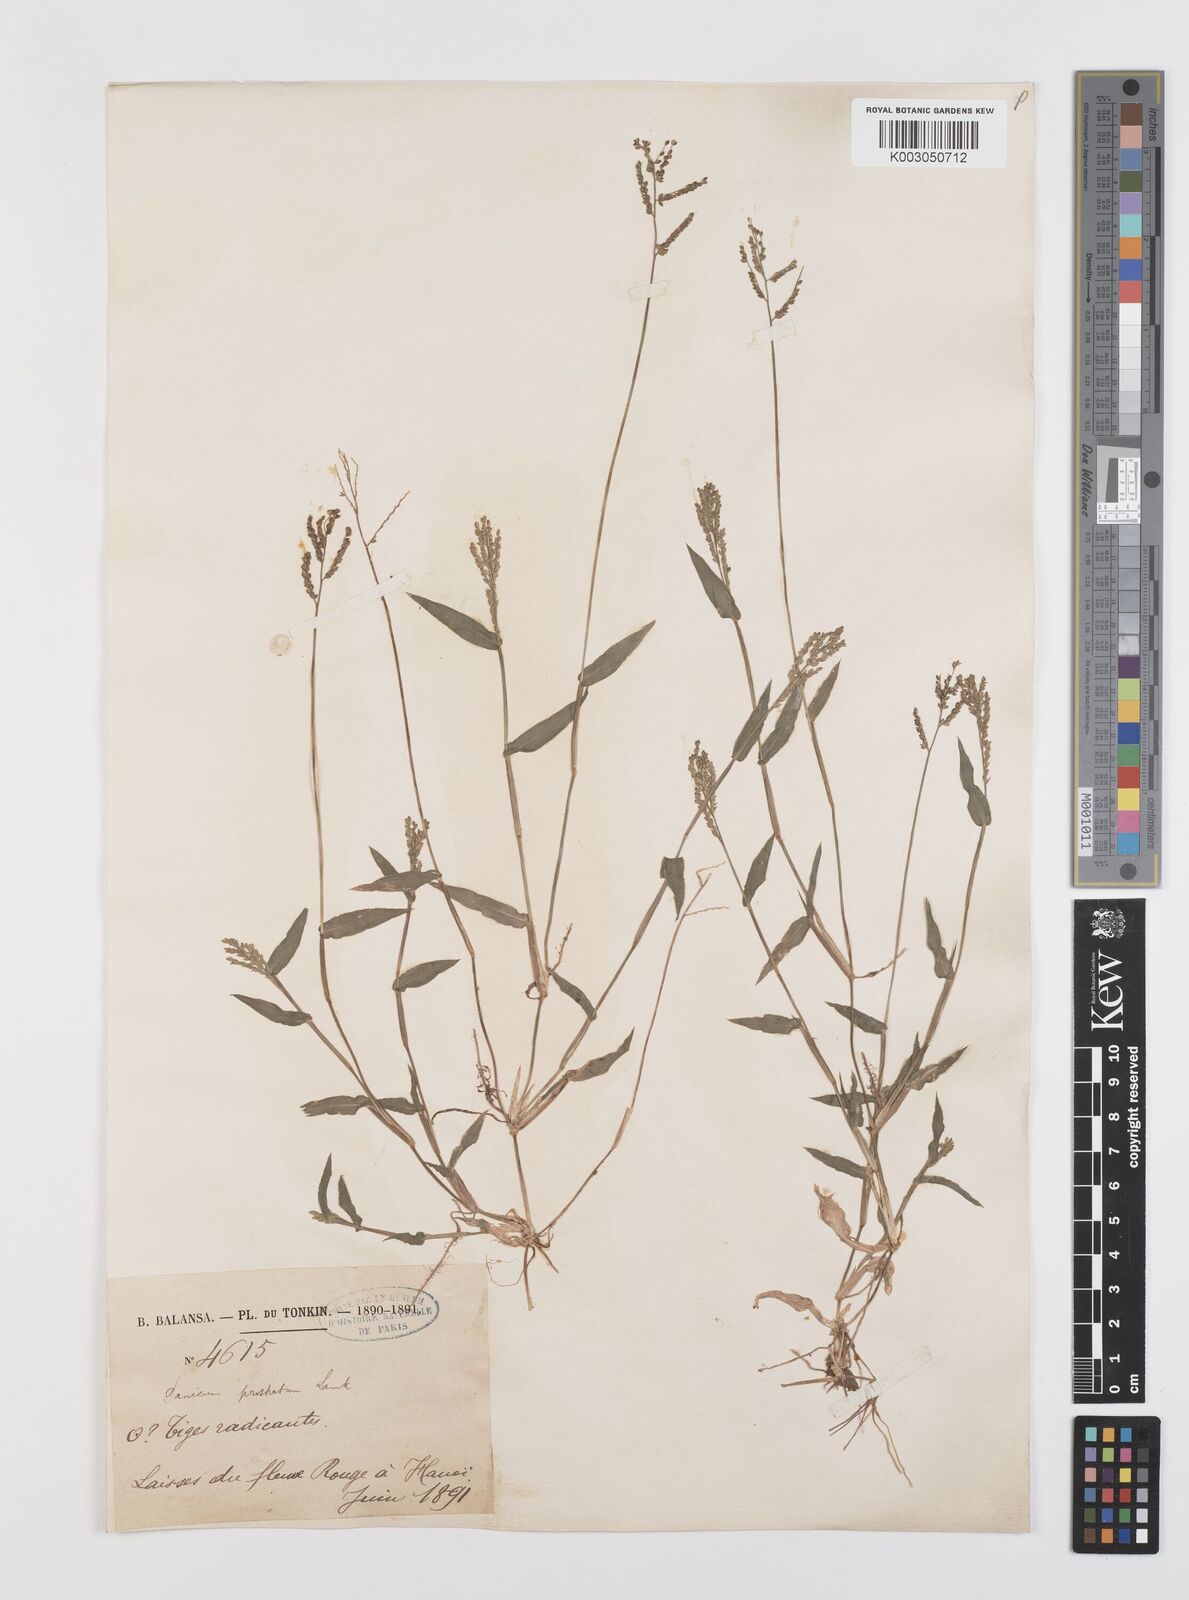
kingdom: Plantae
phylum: Tracheophyta
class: Liliopsida
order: Poales
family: Poaceae
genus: Urochloa
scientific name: Urochloa reptans
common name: Sprawling signalgrass
